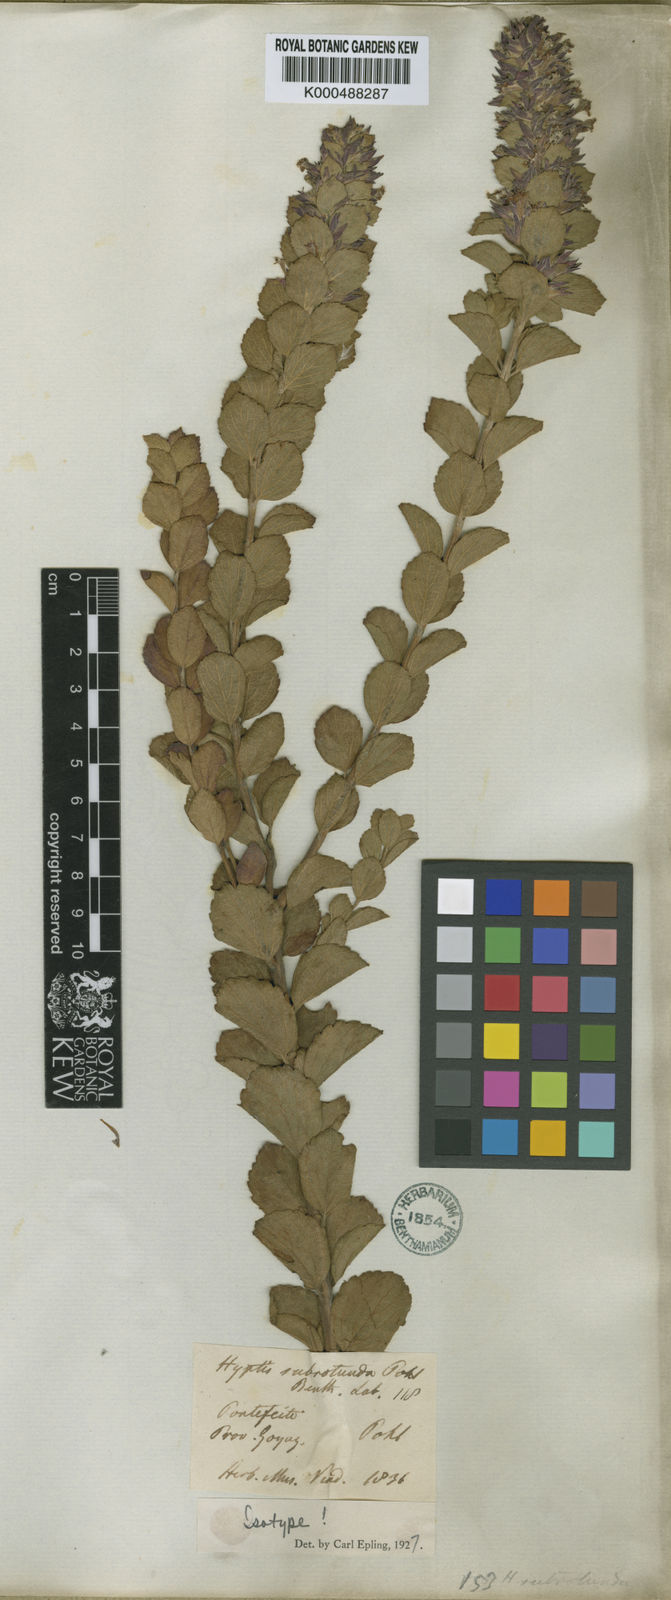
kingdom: Plantae
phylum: Tracheophyta
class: Magnoliopsida
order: Lamiales
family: Lamiaceae
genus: Cantinoa
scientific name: Cantinoa subrotunda
